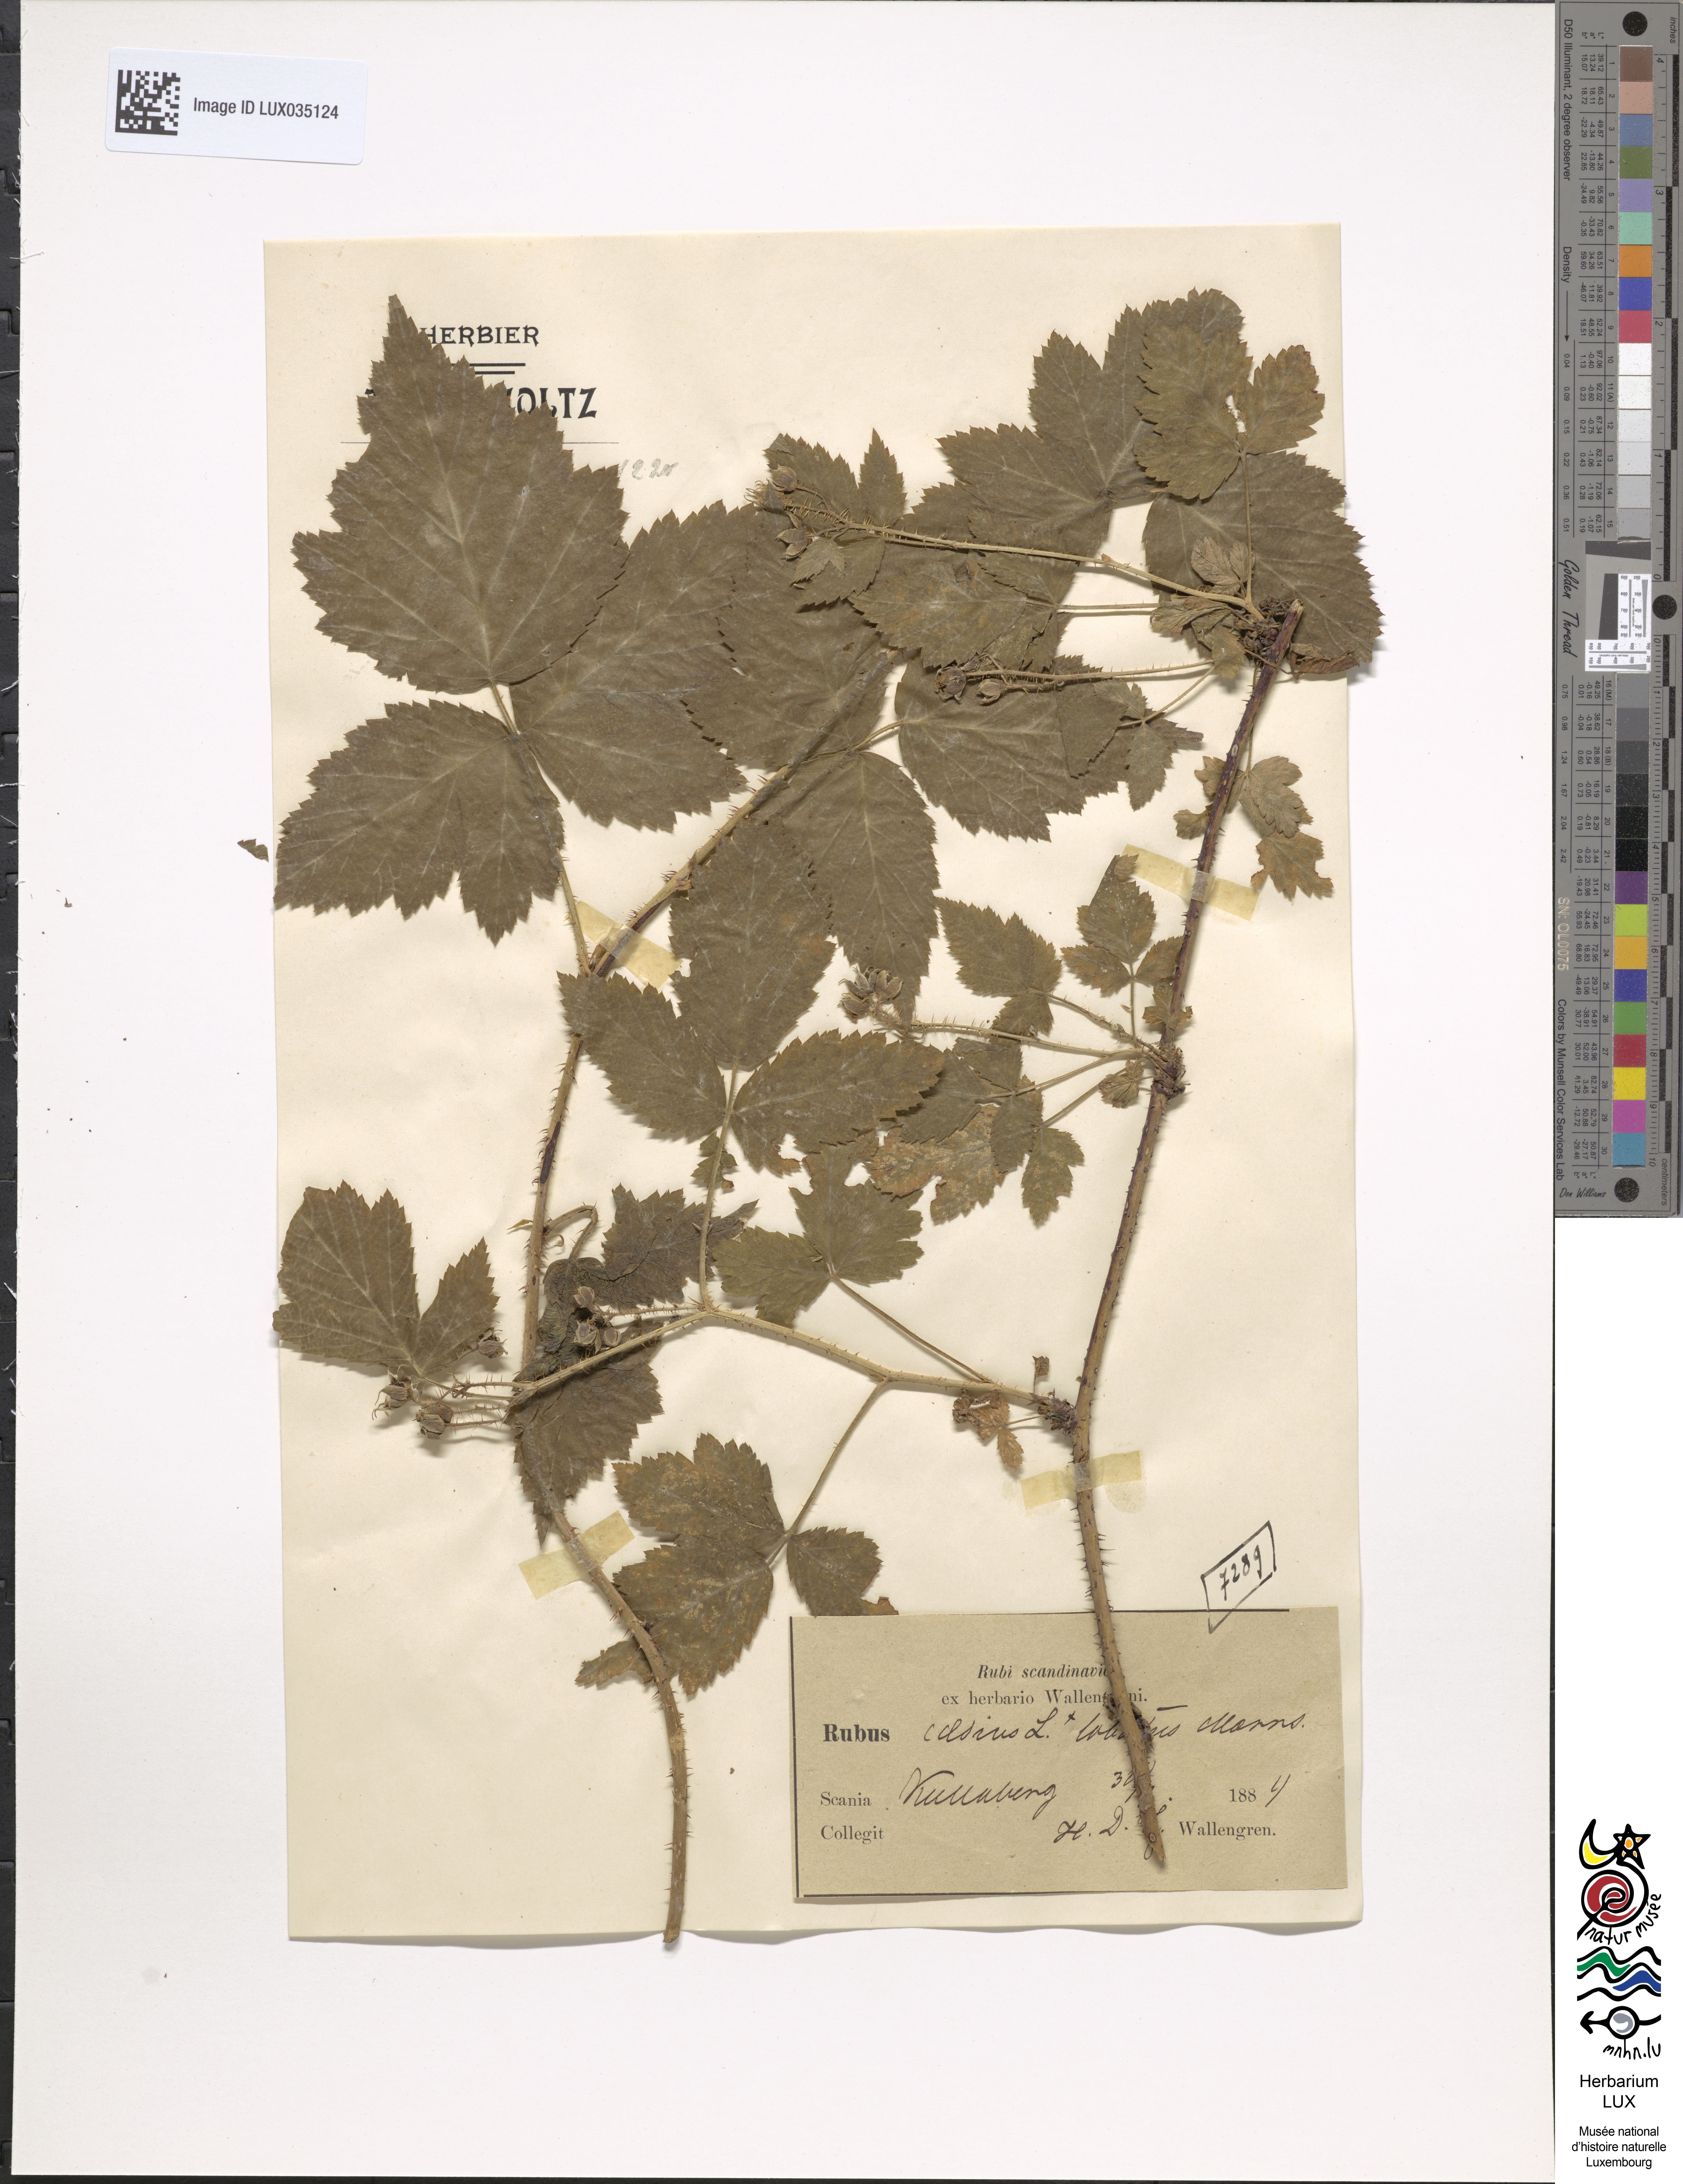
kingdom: Plantae
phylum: Tracheophyta
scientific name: Tracheophyta
